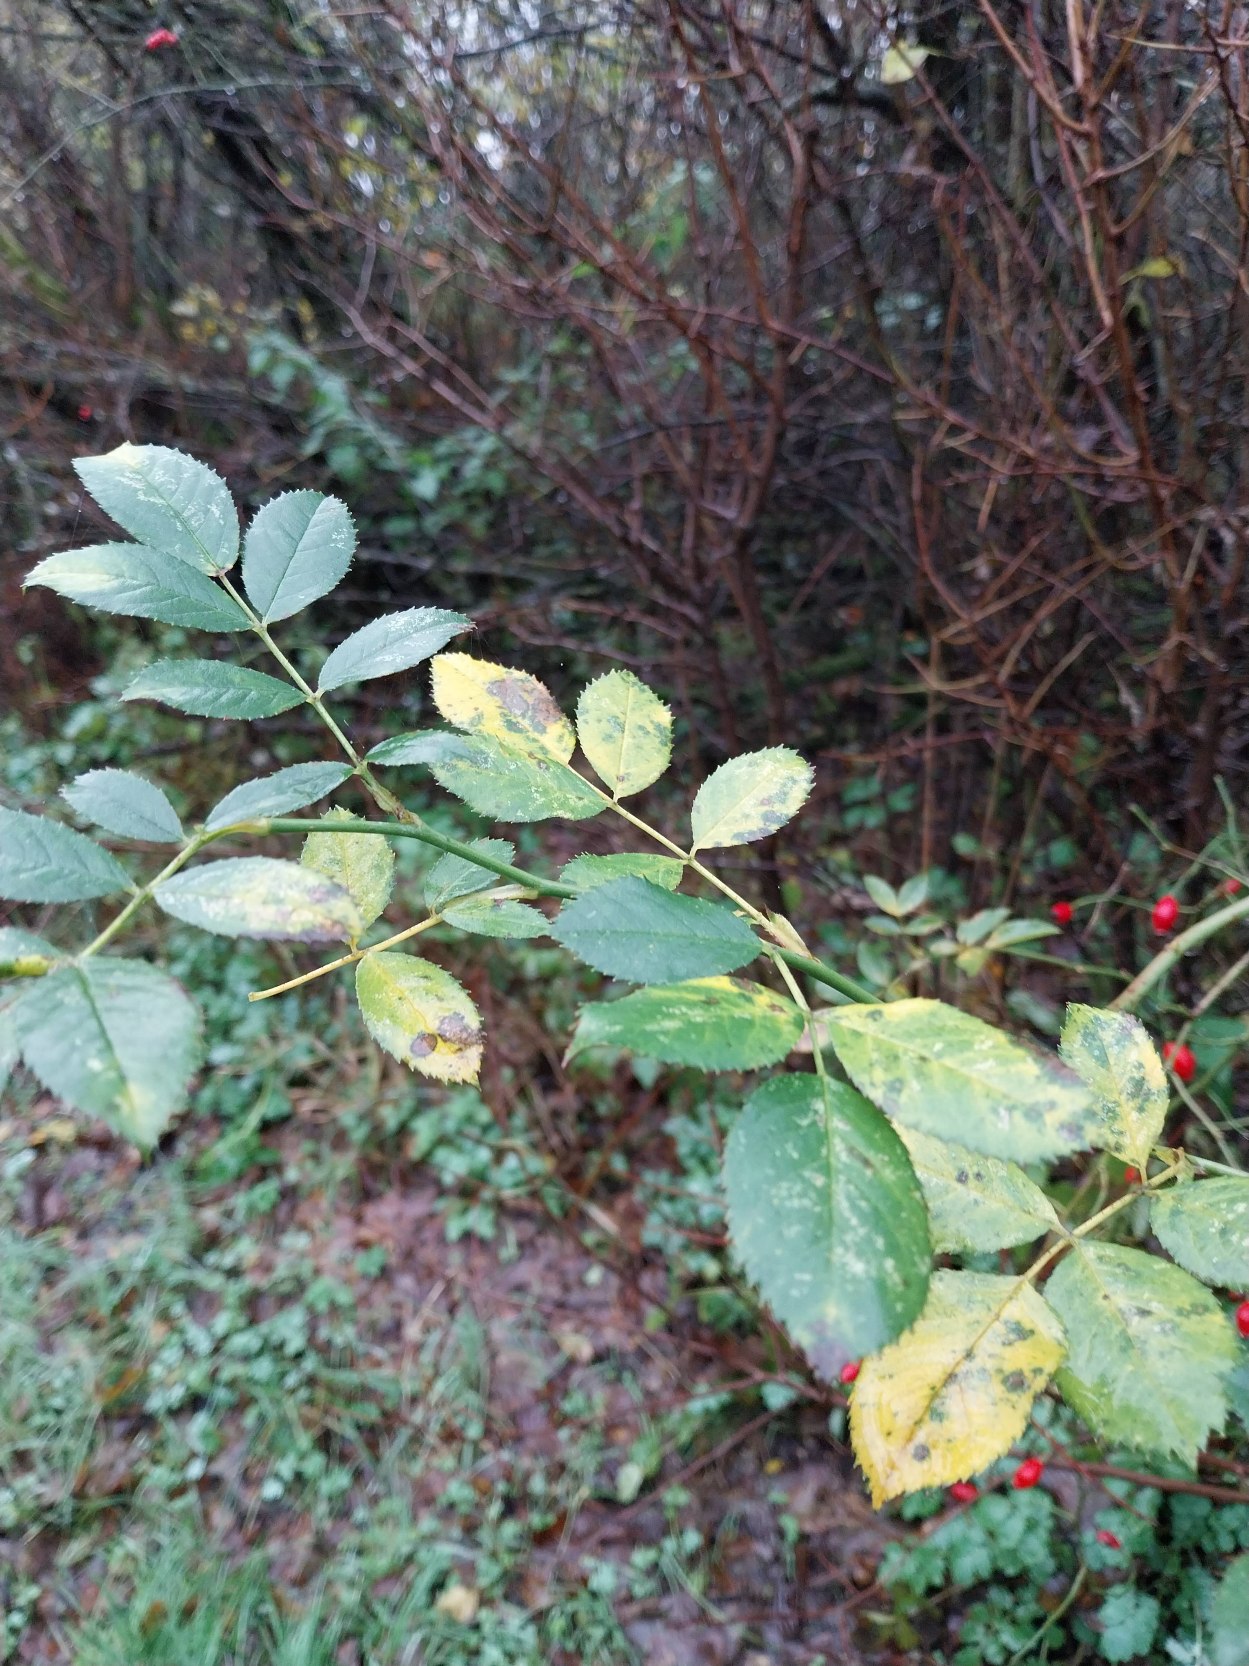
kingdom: Plantae
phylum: Tracheophyta
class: Magnoliopsida
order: Rosales
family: Rosaceae
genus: Rosa
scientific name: Rosa canina
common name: Glat hunde-rose
